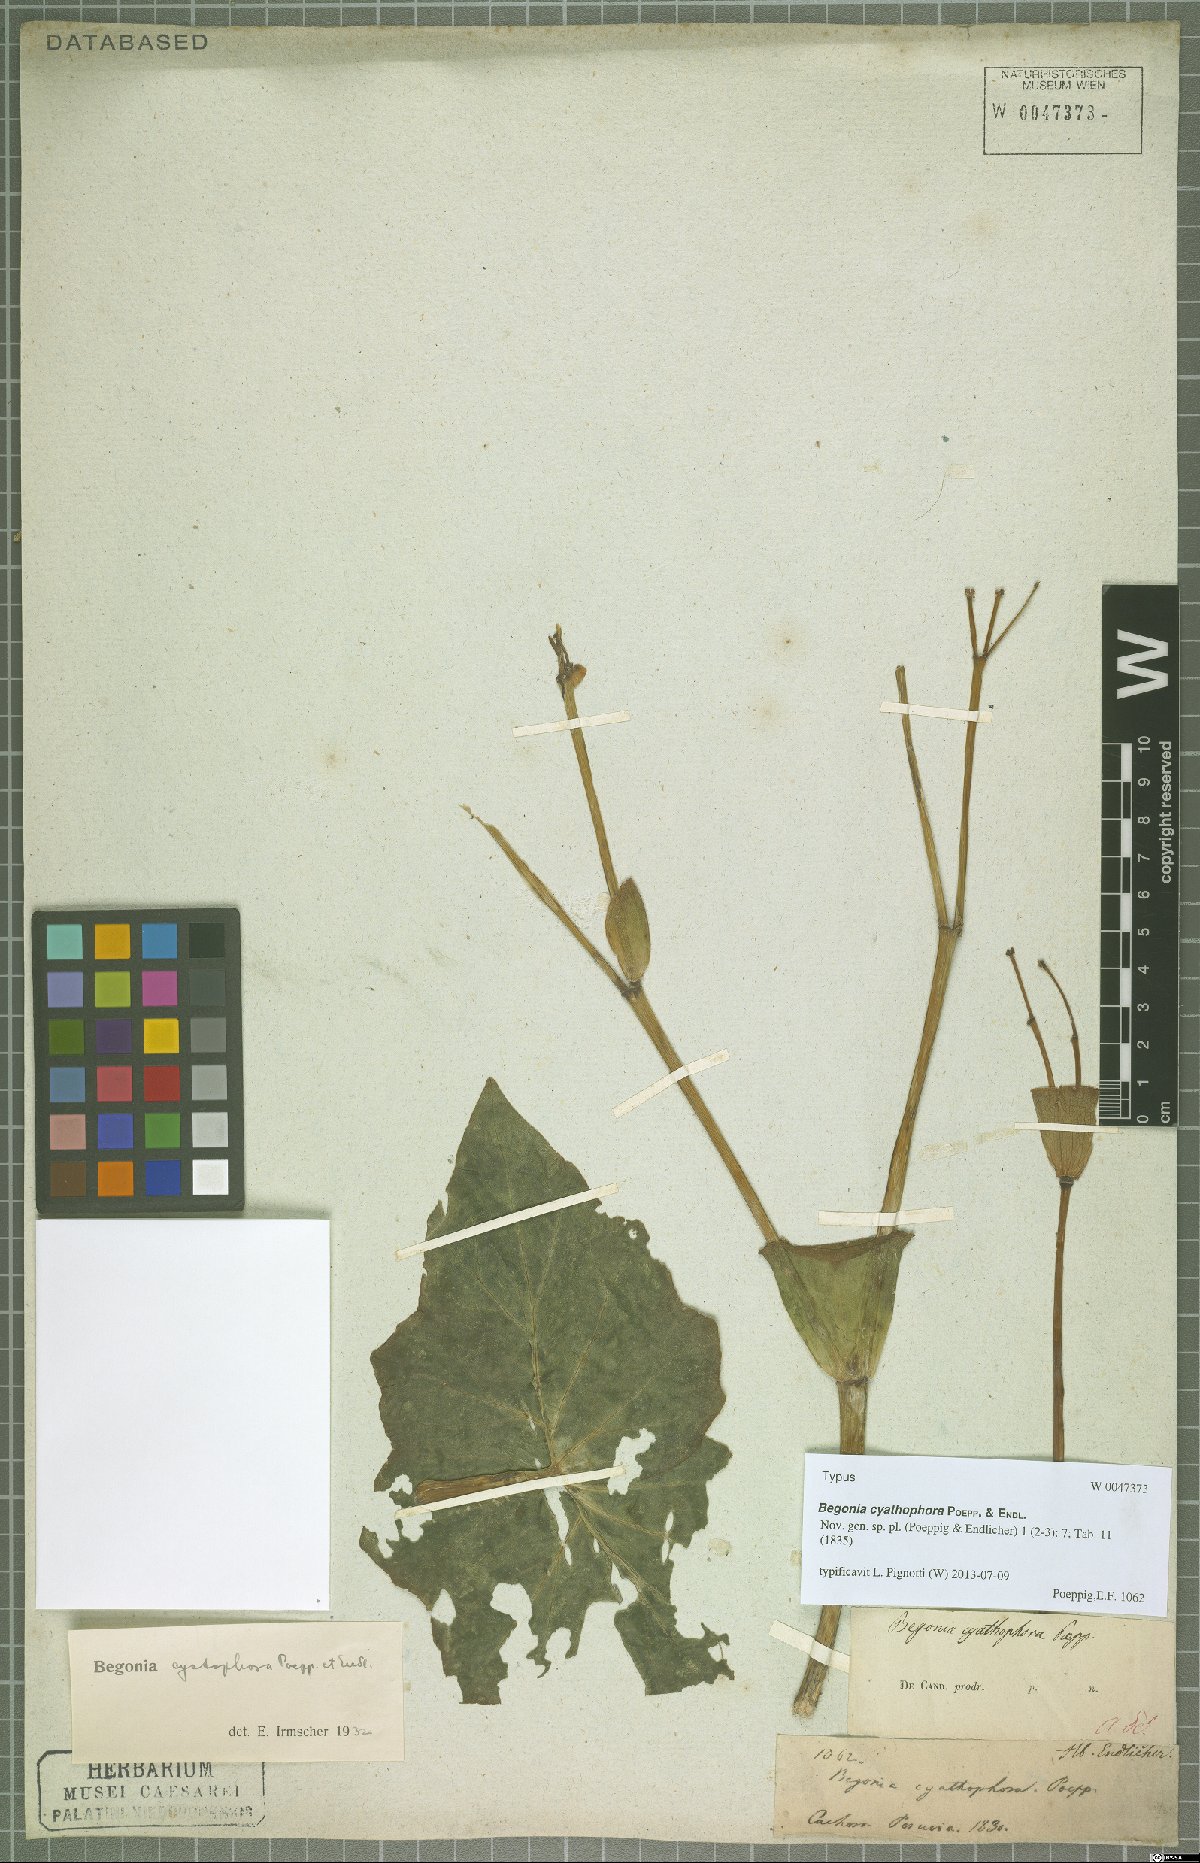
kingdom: Plantae
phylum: Tracheophyta
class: Magnoliopsida
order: Cucurbitales
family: Begoniaceae
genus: Begonia
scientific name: Begonia cyathophora
